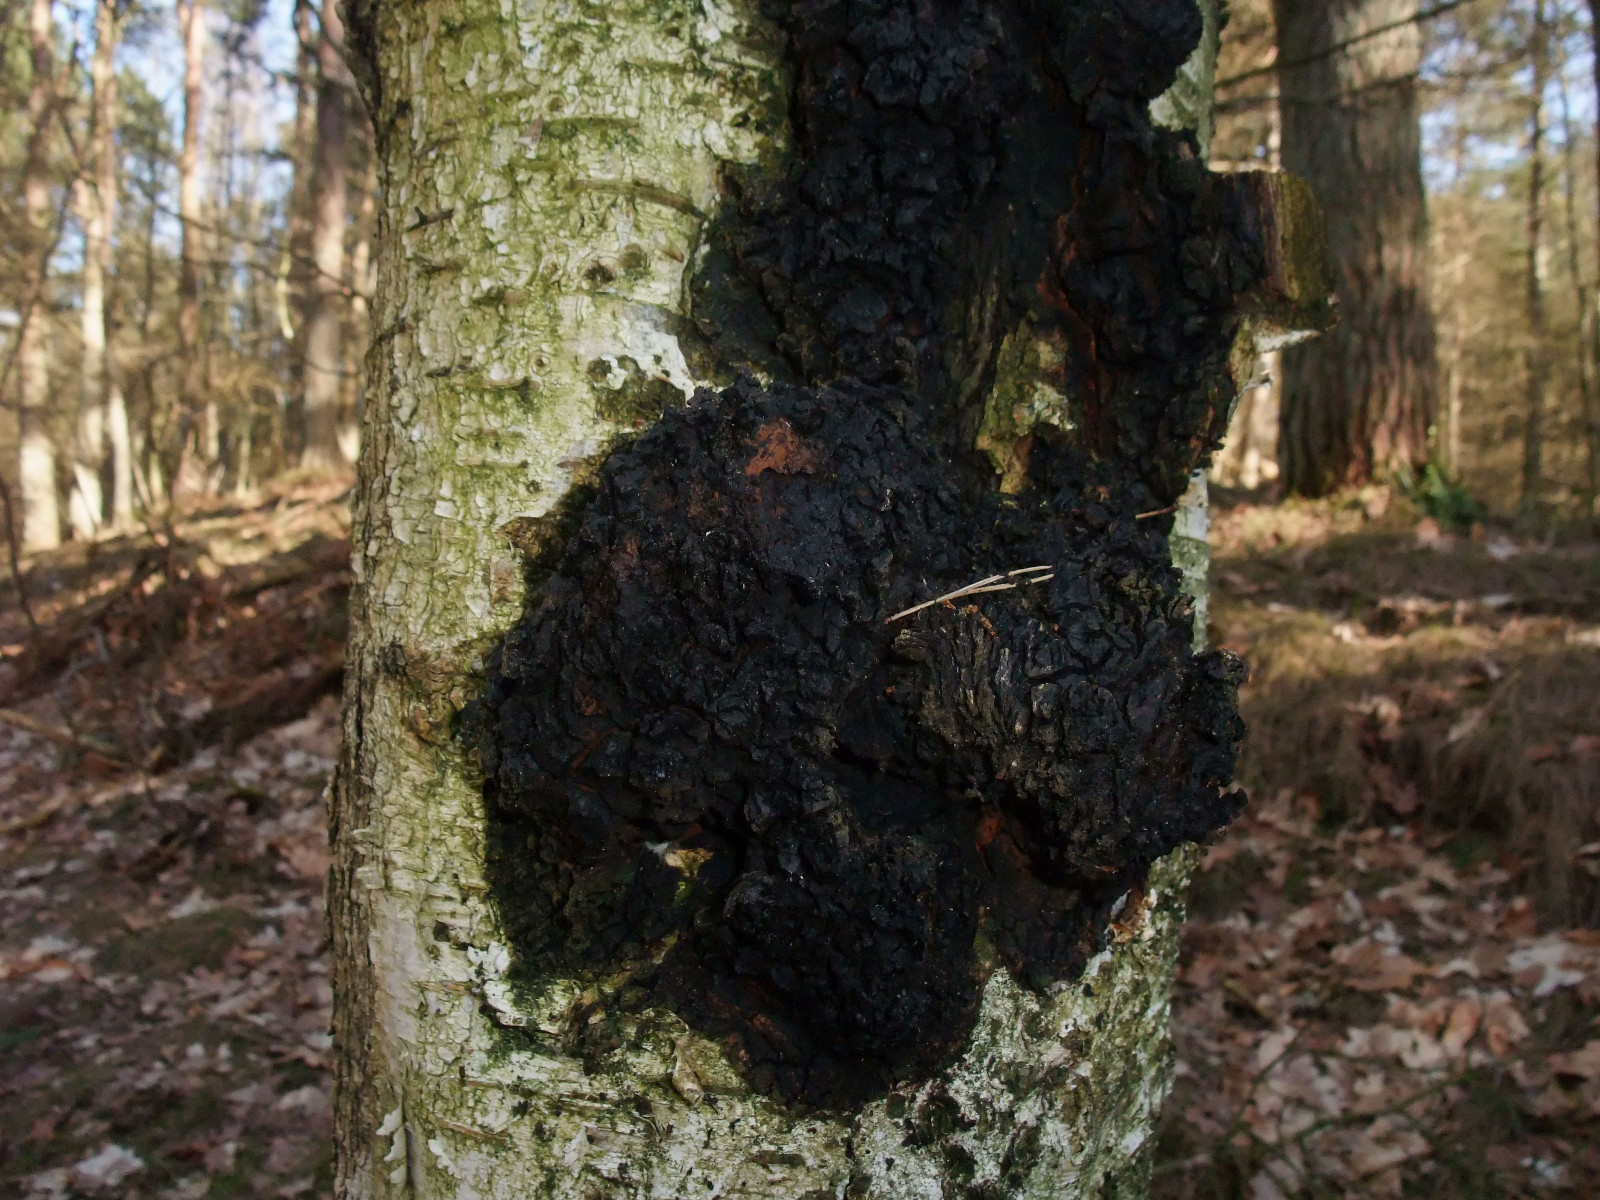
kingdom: Fungi
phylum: Basidiomycota
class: Agaricomycetes
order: Hymenochaetales
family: Hymenochaetaceae
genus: Inonotus
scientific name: Inonotus obliquus
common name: birke-spejlporesvamp
